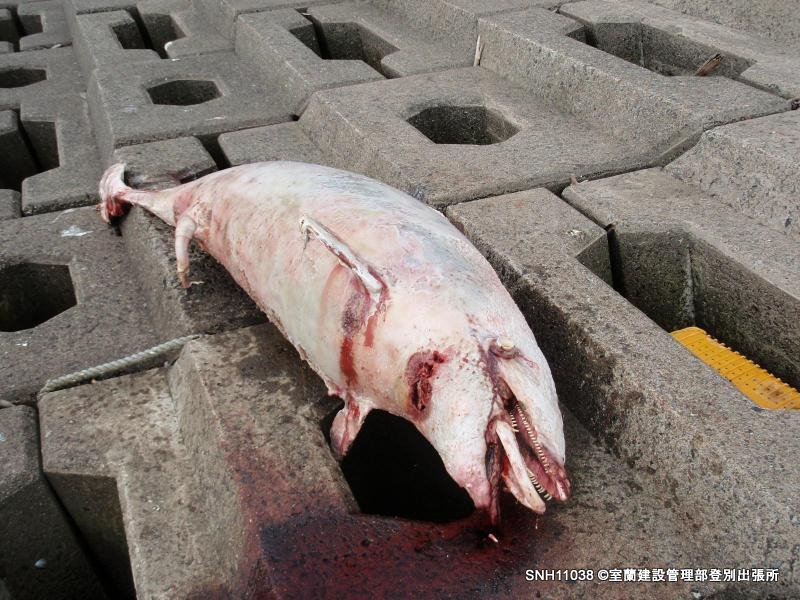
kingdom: Animalia
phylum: Chordata
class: Mammalia
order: Cetacea
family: Delphinidae
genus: Lagenorhynchus
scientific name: Lagenorhynchus obliquidens
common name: Pacific white-sided dolphin
